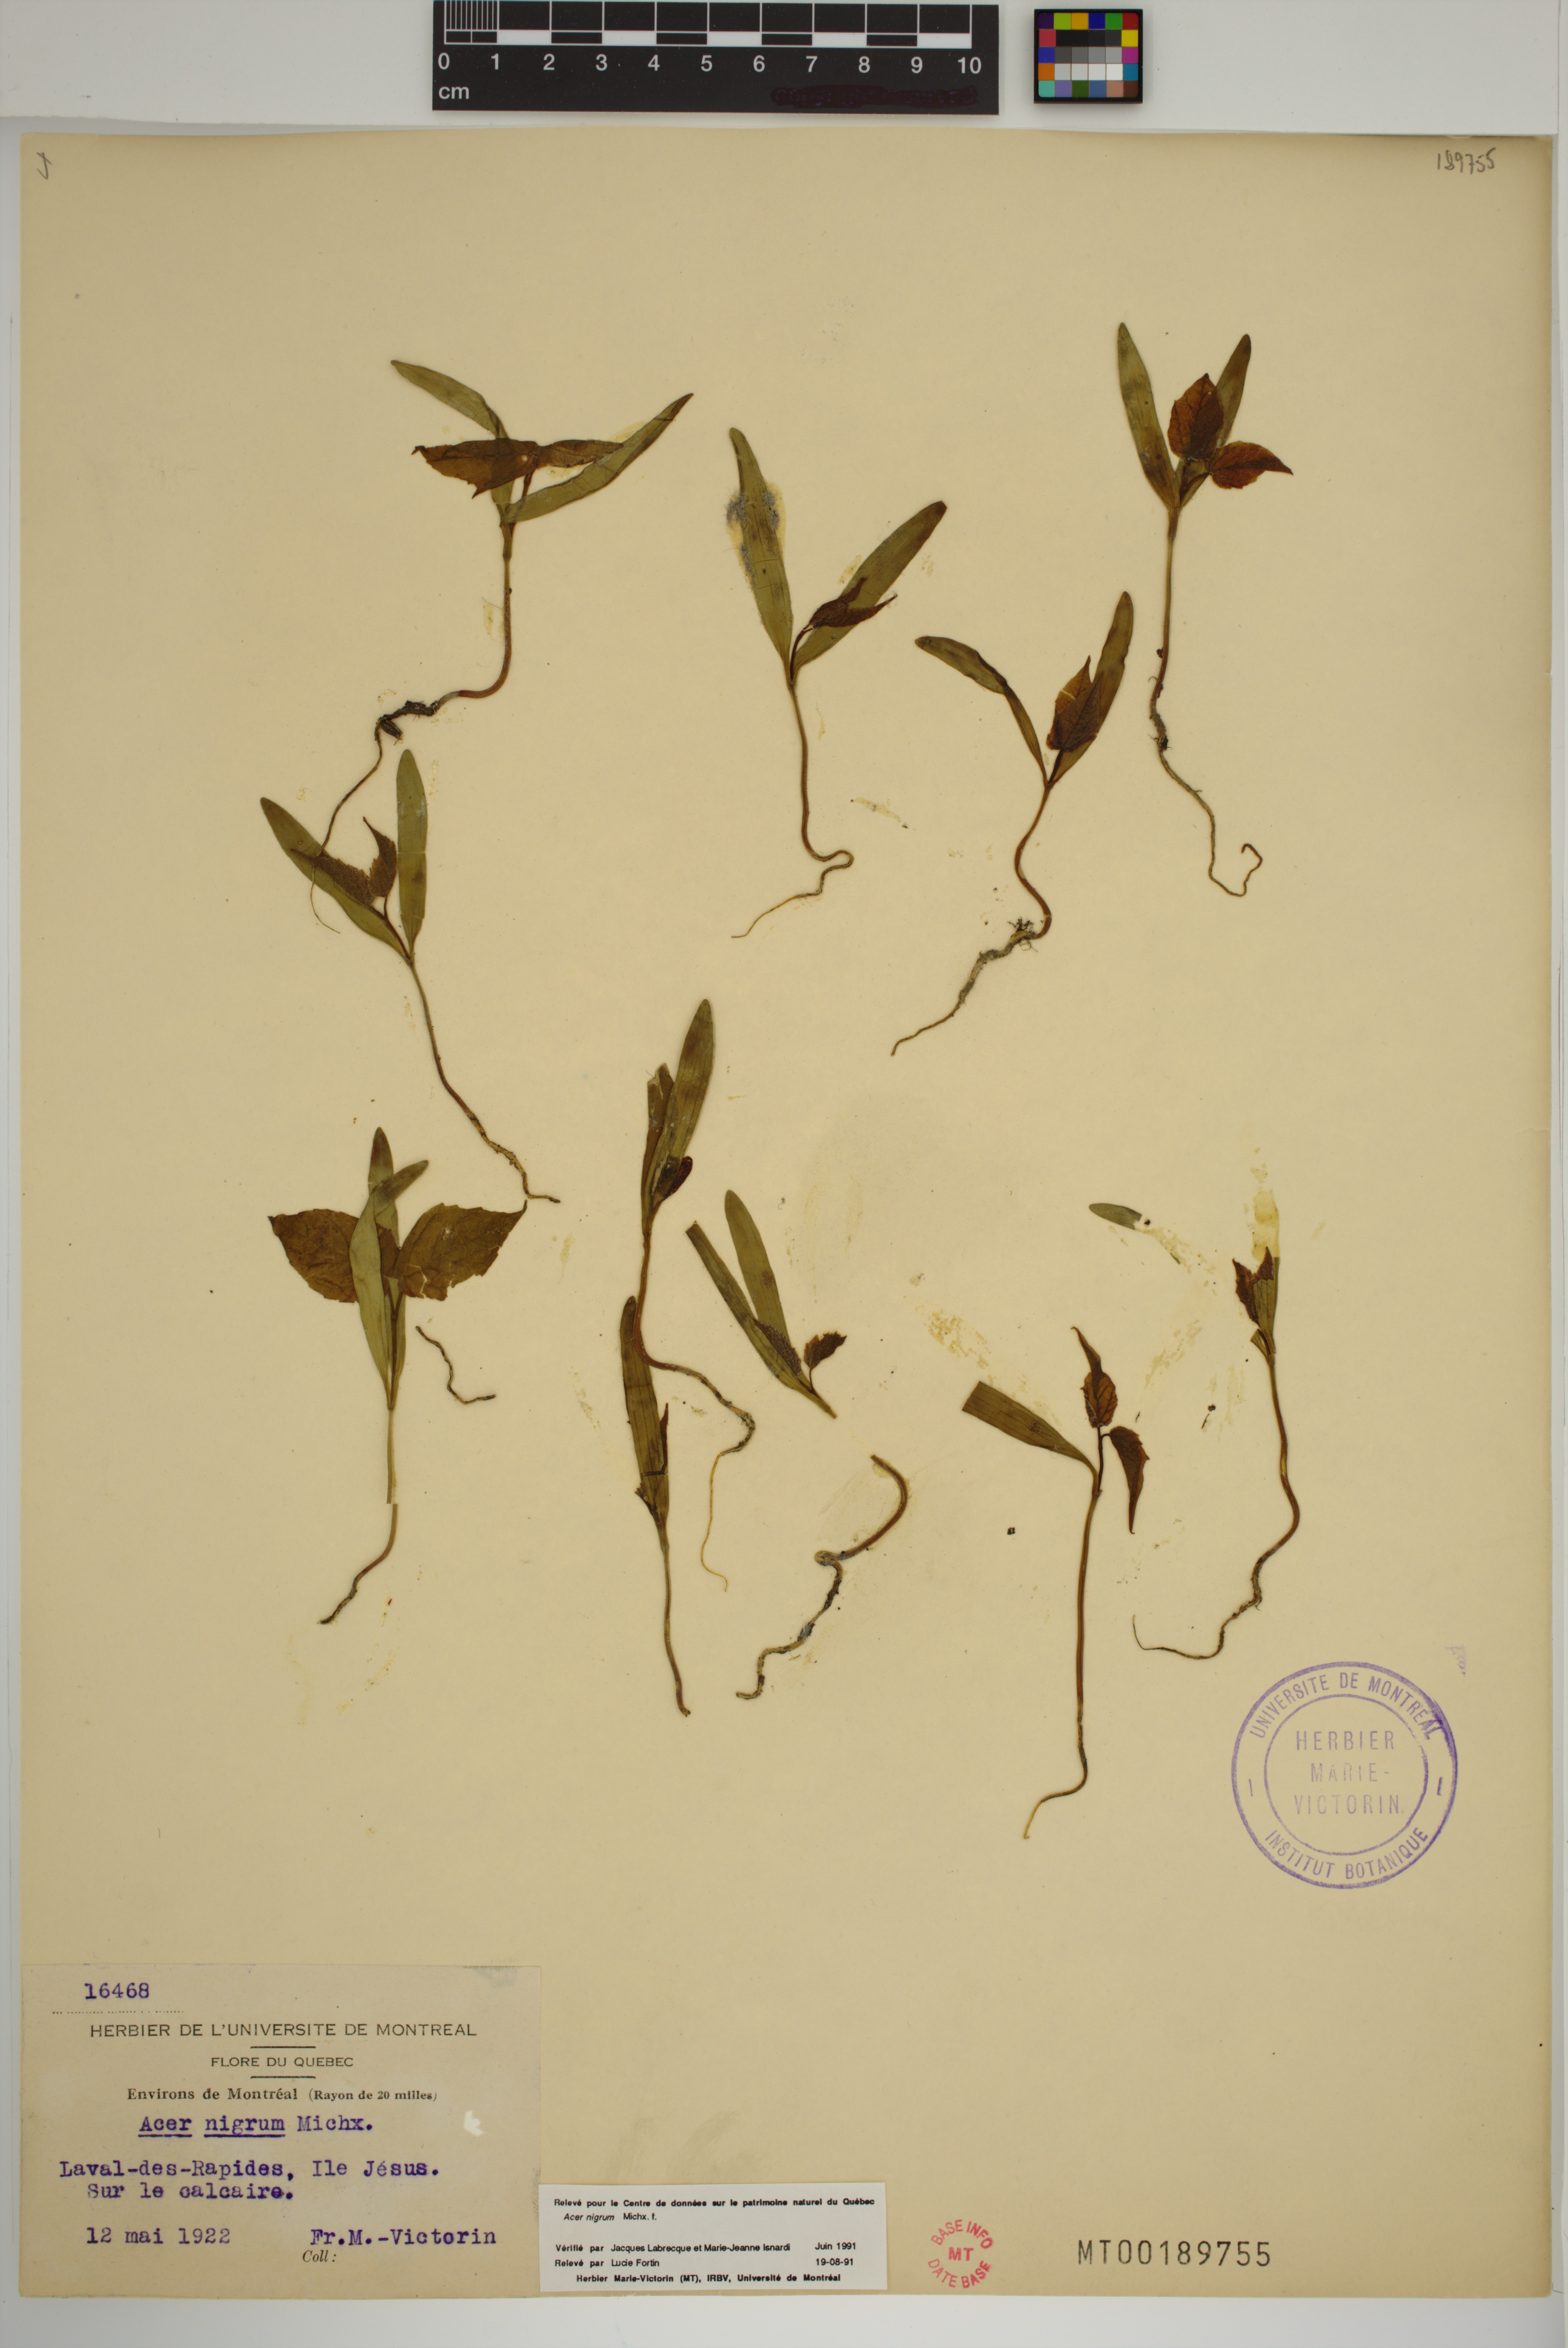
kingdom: Plantae
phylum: Tracheophyta
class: Magnoliopsida
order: Sapindales
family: Sapindaceae
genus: Acer
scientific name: Acer nigrum
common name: Black maple
